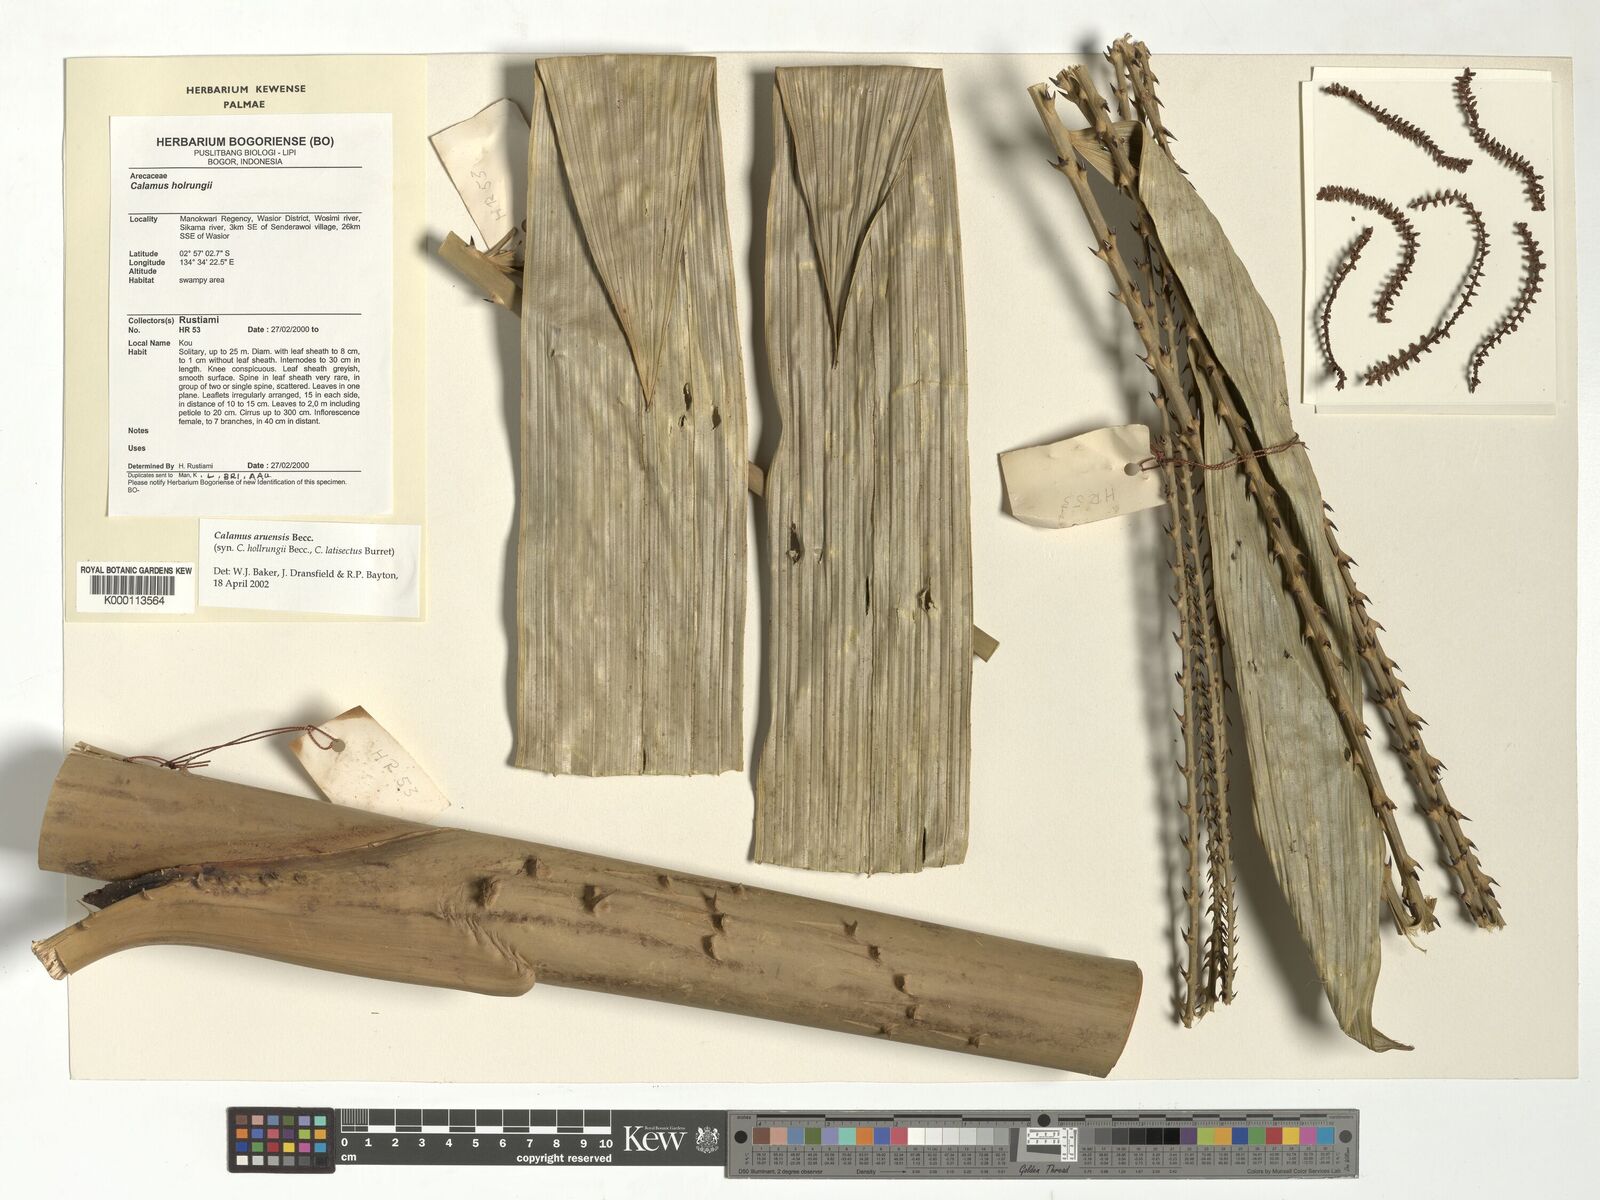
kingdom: Plantae
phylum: Tracheophyta
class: Liliopsida
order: Arecales
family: Arecaceae
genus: Calamus
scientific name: Calamus aruensis
